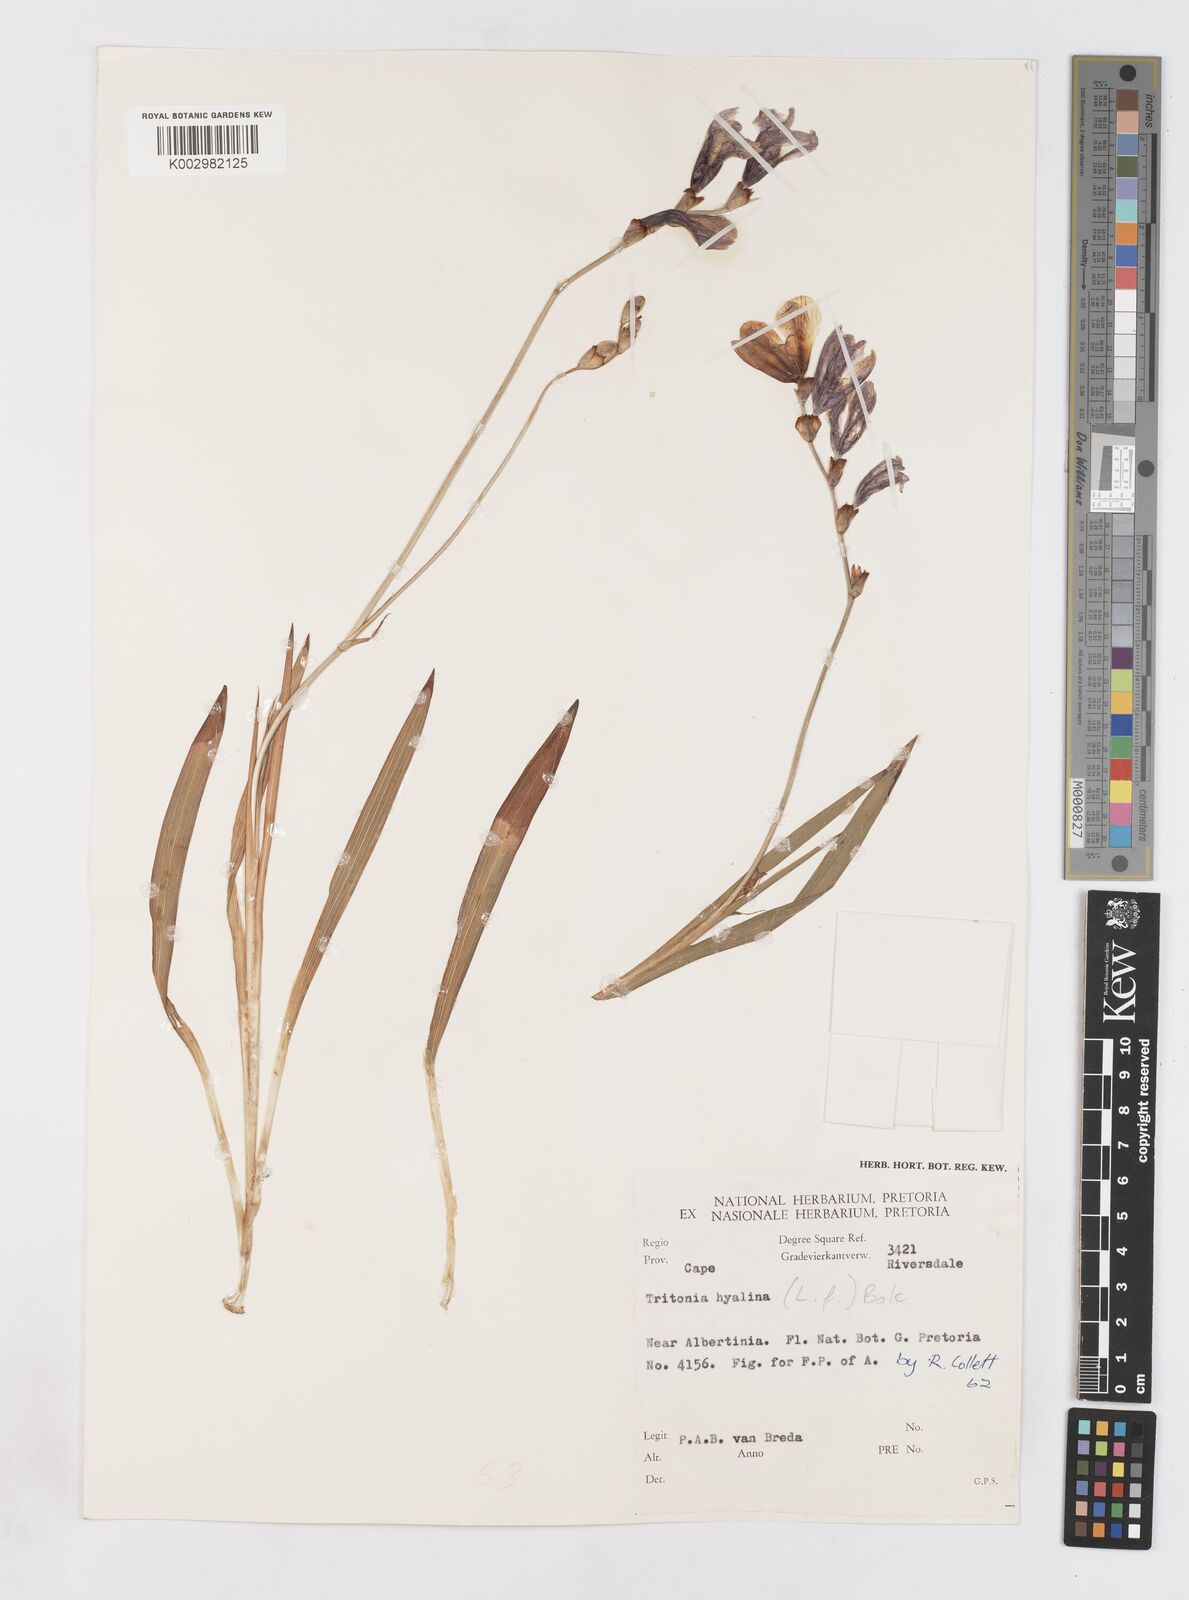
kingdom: Plantae
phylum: Tracheophyta
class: Liliopsida
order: Asparagales
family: Iridaceae
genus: Tritonia
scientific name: Tritonia crocata
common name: Flame-freesia
